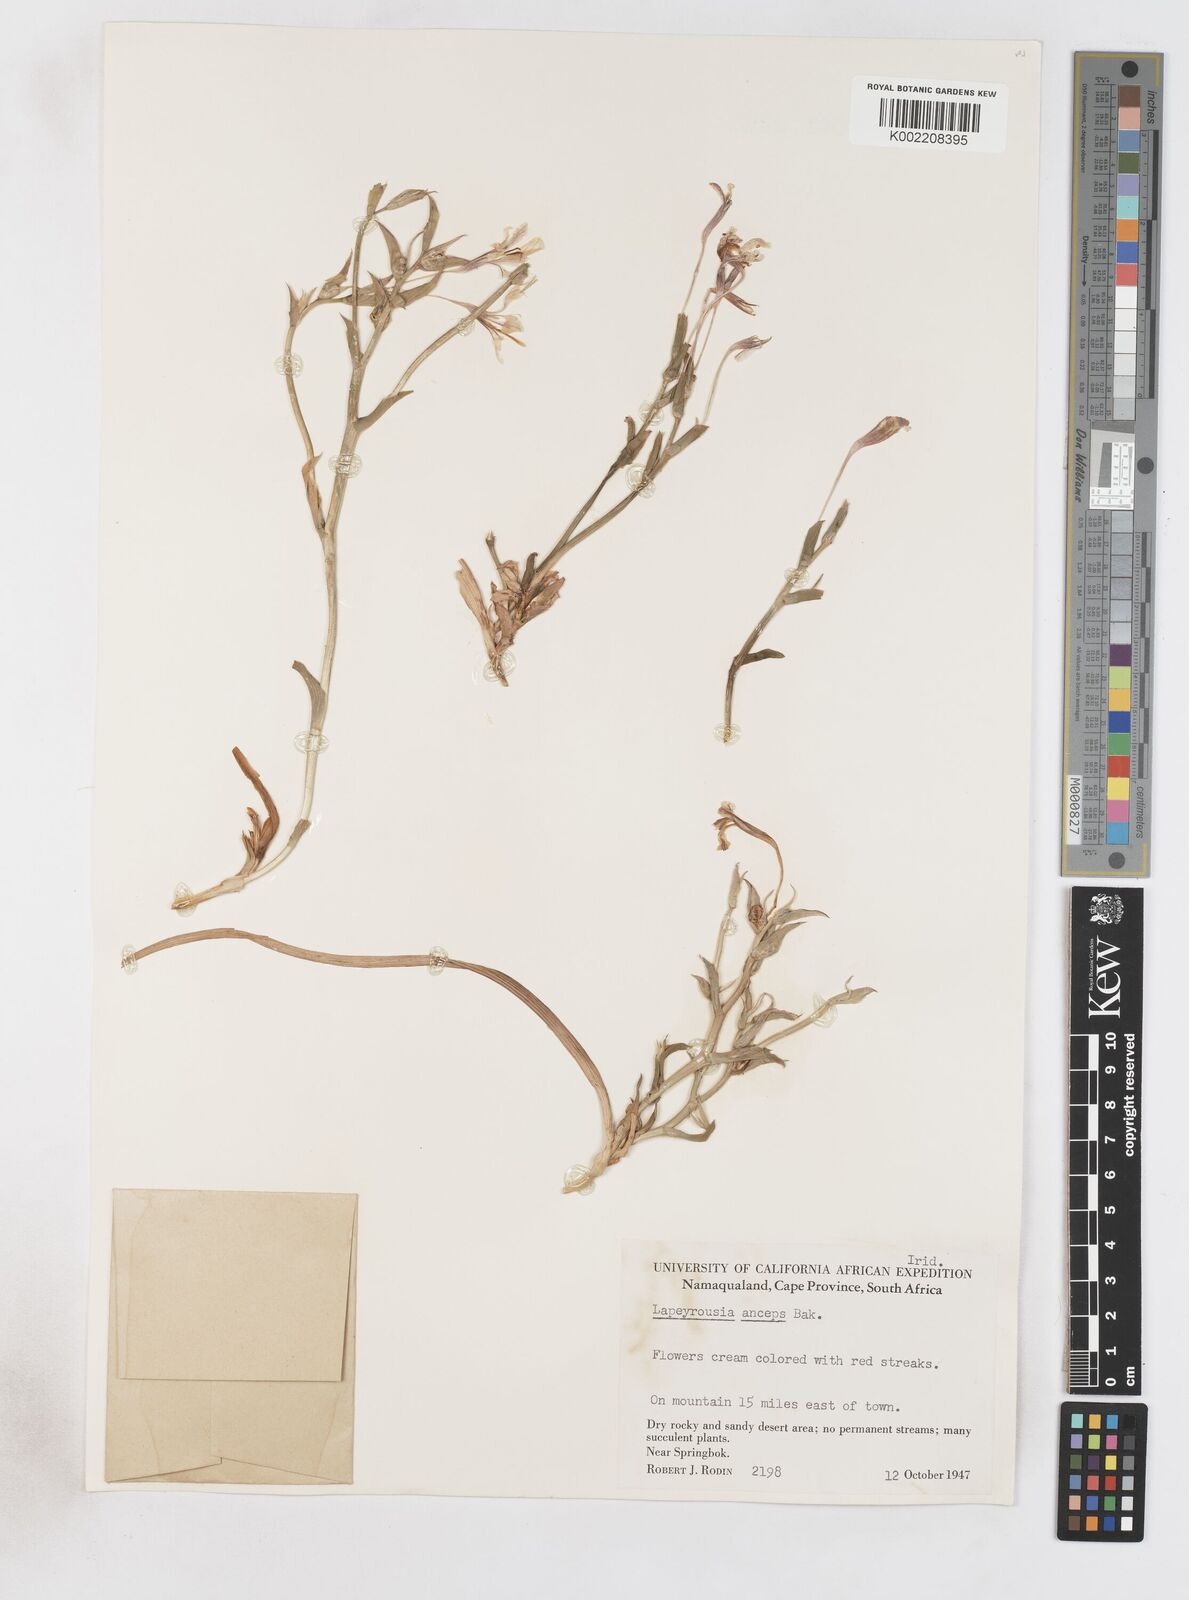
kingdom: Plantae
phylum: Tracheophyta
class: Liliopsida
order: Asparagales
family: Iridaceae
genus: Lapeirousia
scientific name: Lapeirousia fabricii
